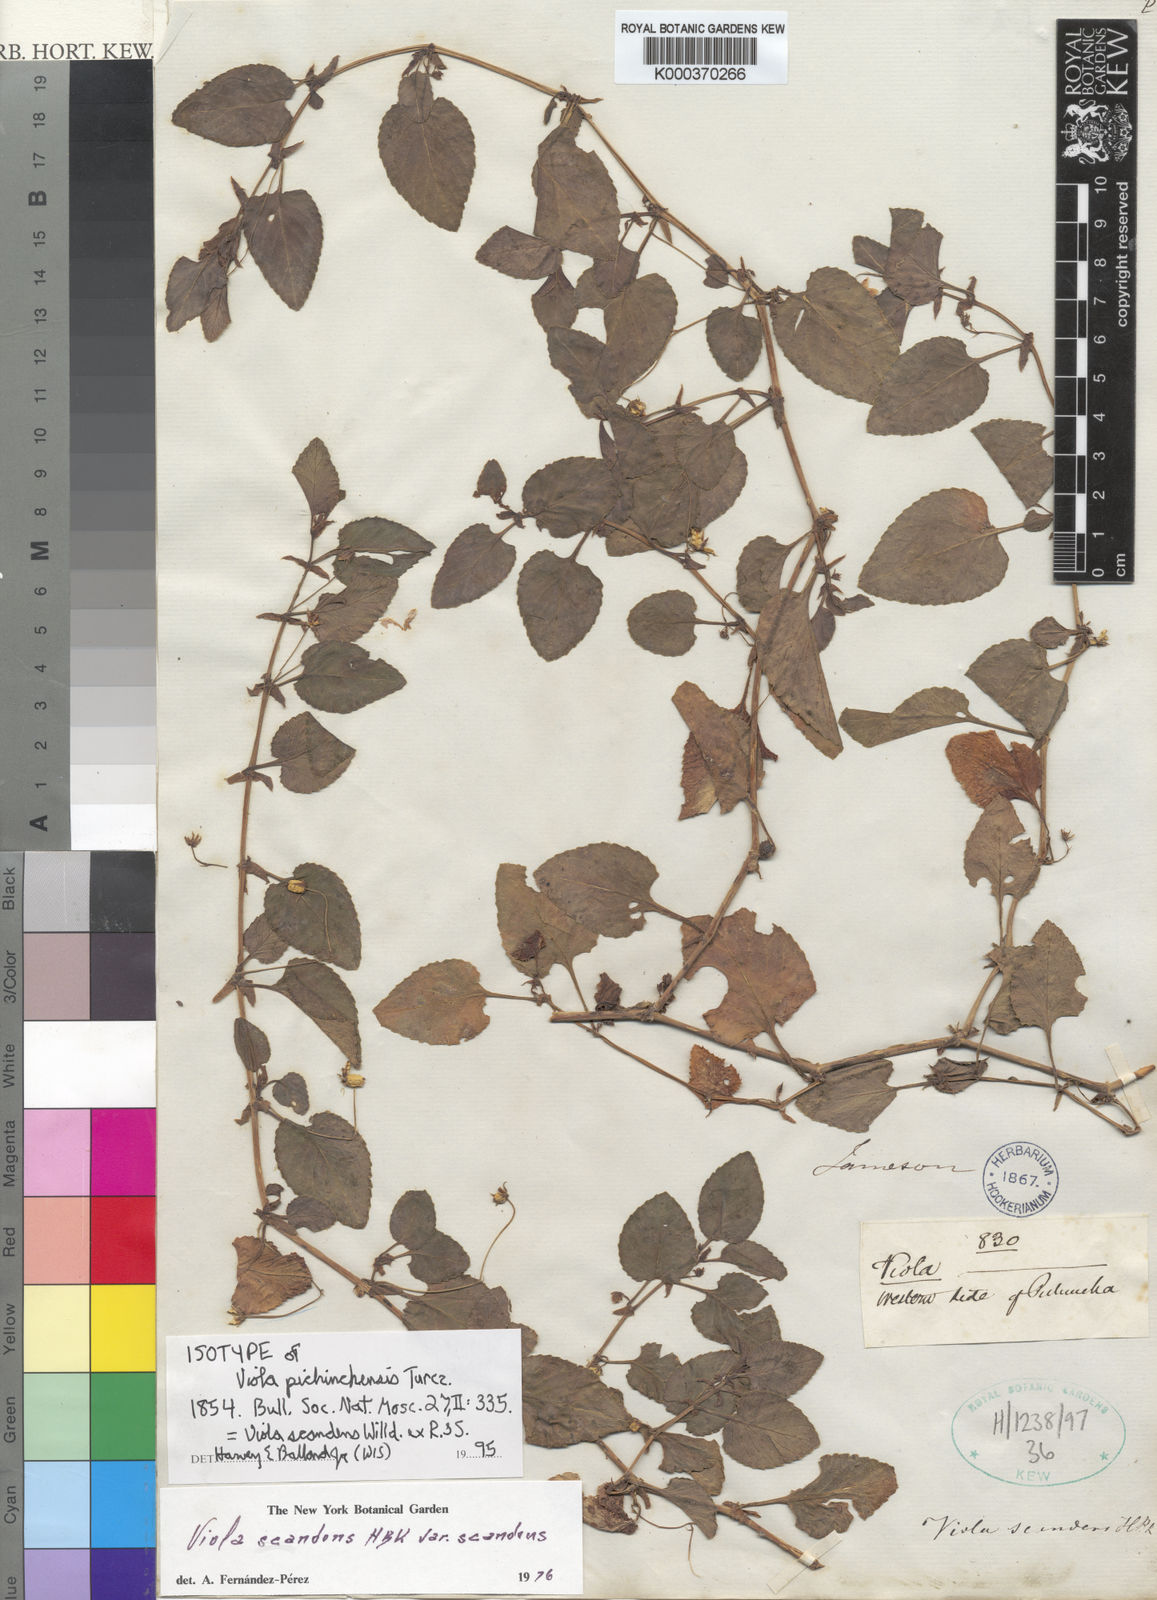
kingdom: Plantae
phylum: Tracheophyta
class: Magnoliopsida
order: Malpighiales
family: Violaceae
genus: Viola
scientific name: Viola
